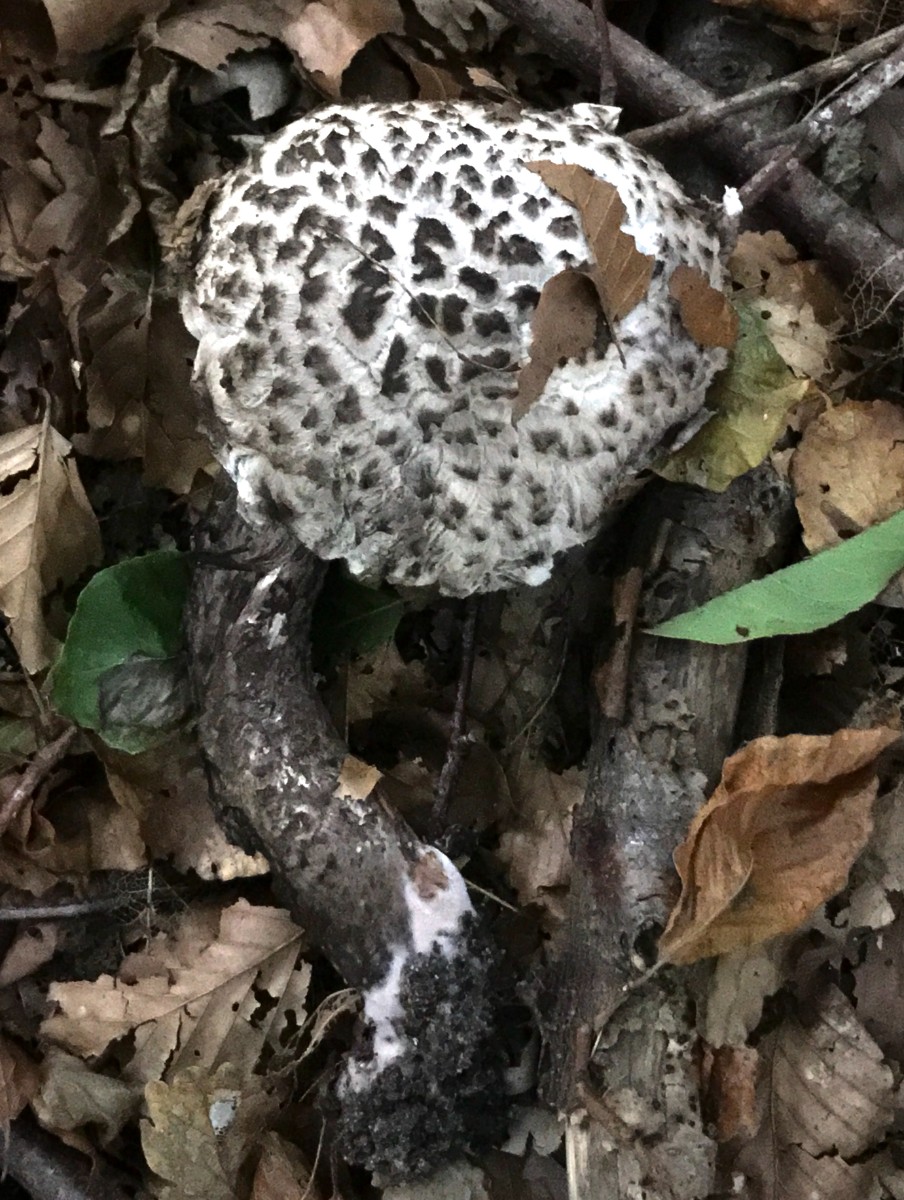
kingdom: Fungi
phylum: Basidiomycota
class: Agaricomycetes
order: Boletales
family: Boletaceae
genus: Strobilomyces
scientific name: Strobilomyces strobilaceus
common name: koglerørhat
